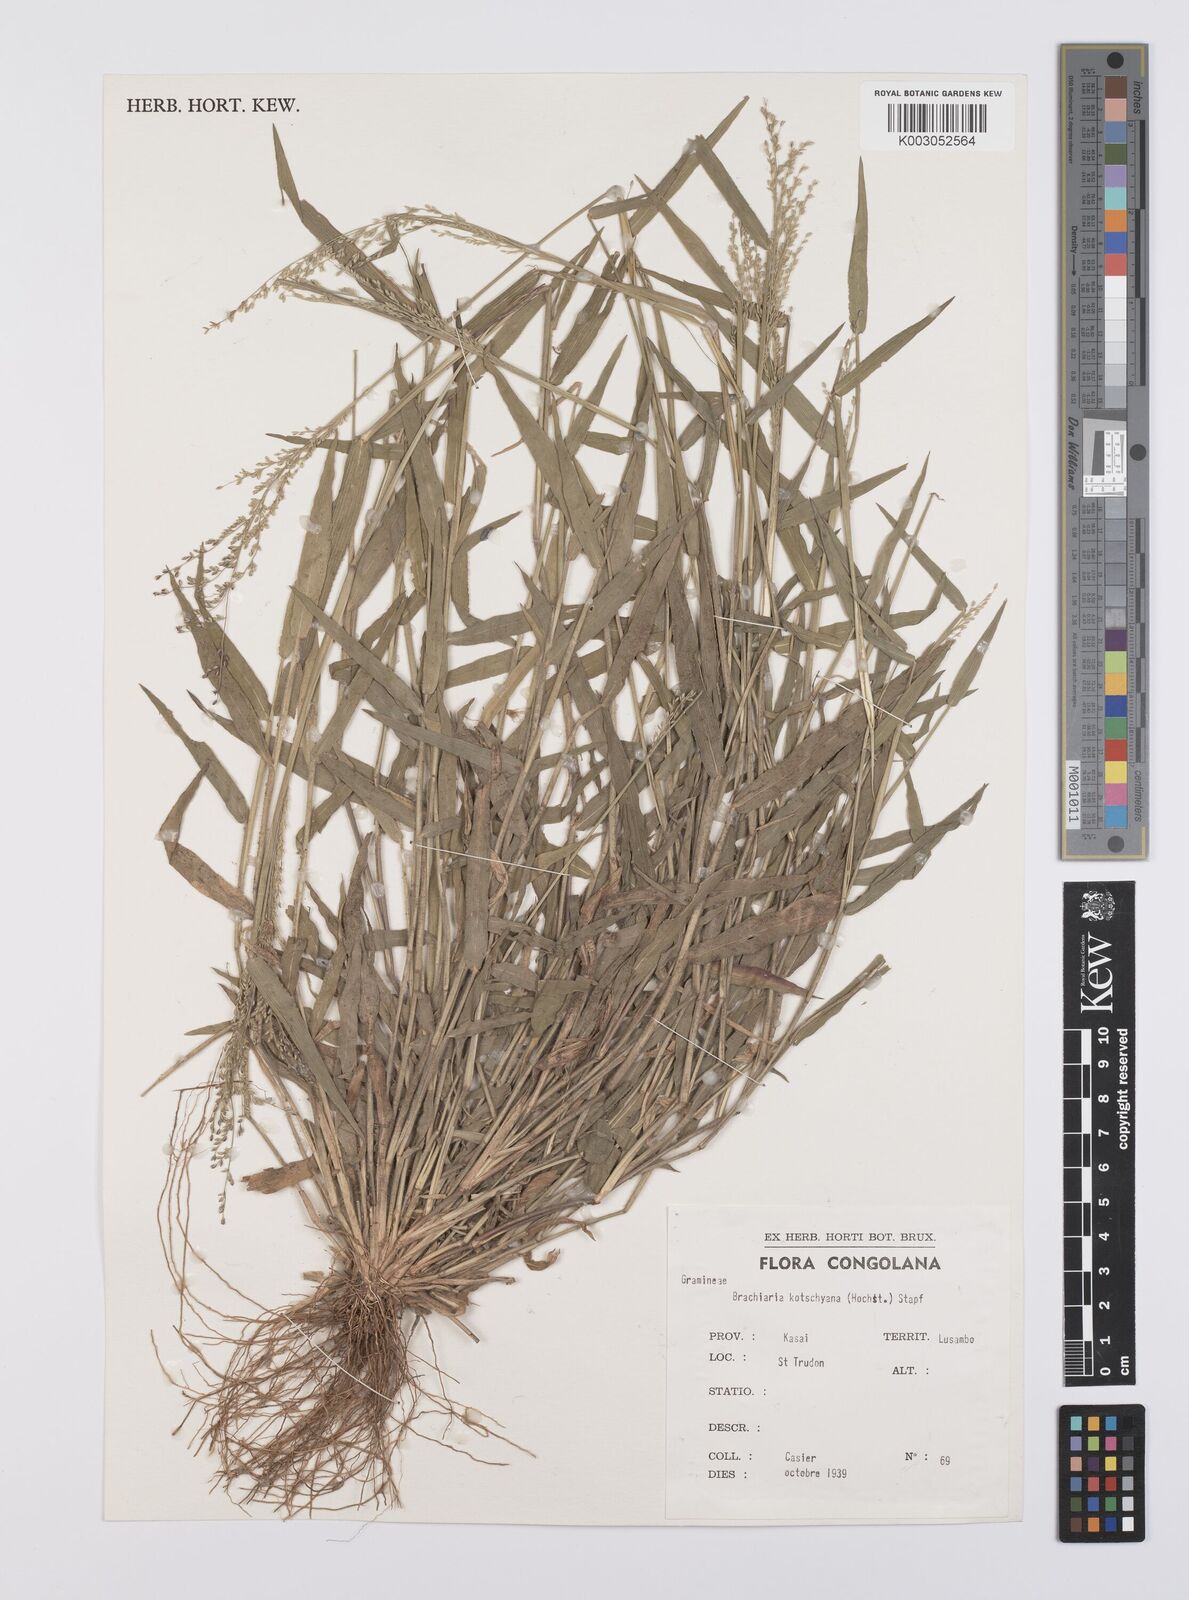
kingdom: Plantae
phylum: Tracheophyta
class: Liliopsida
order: Poales
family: Poaceae
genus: Urochloa
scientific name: Urochloa comata
